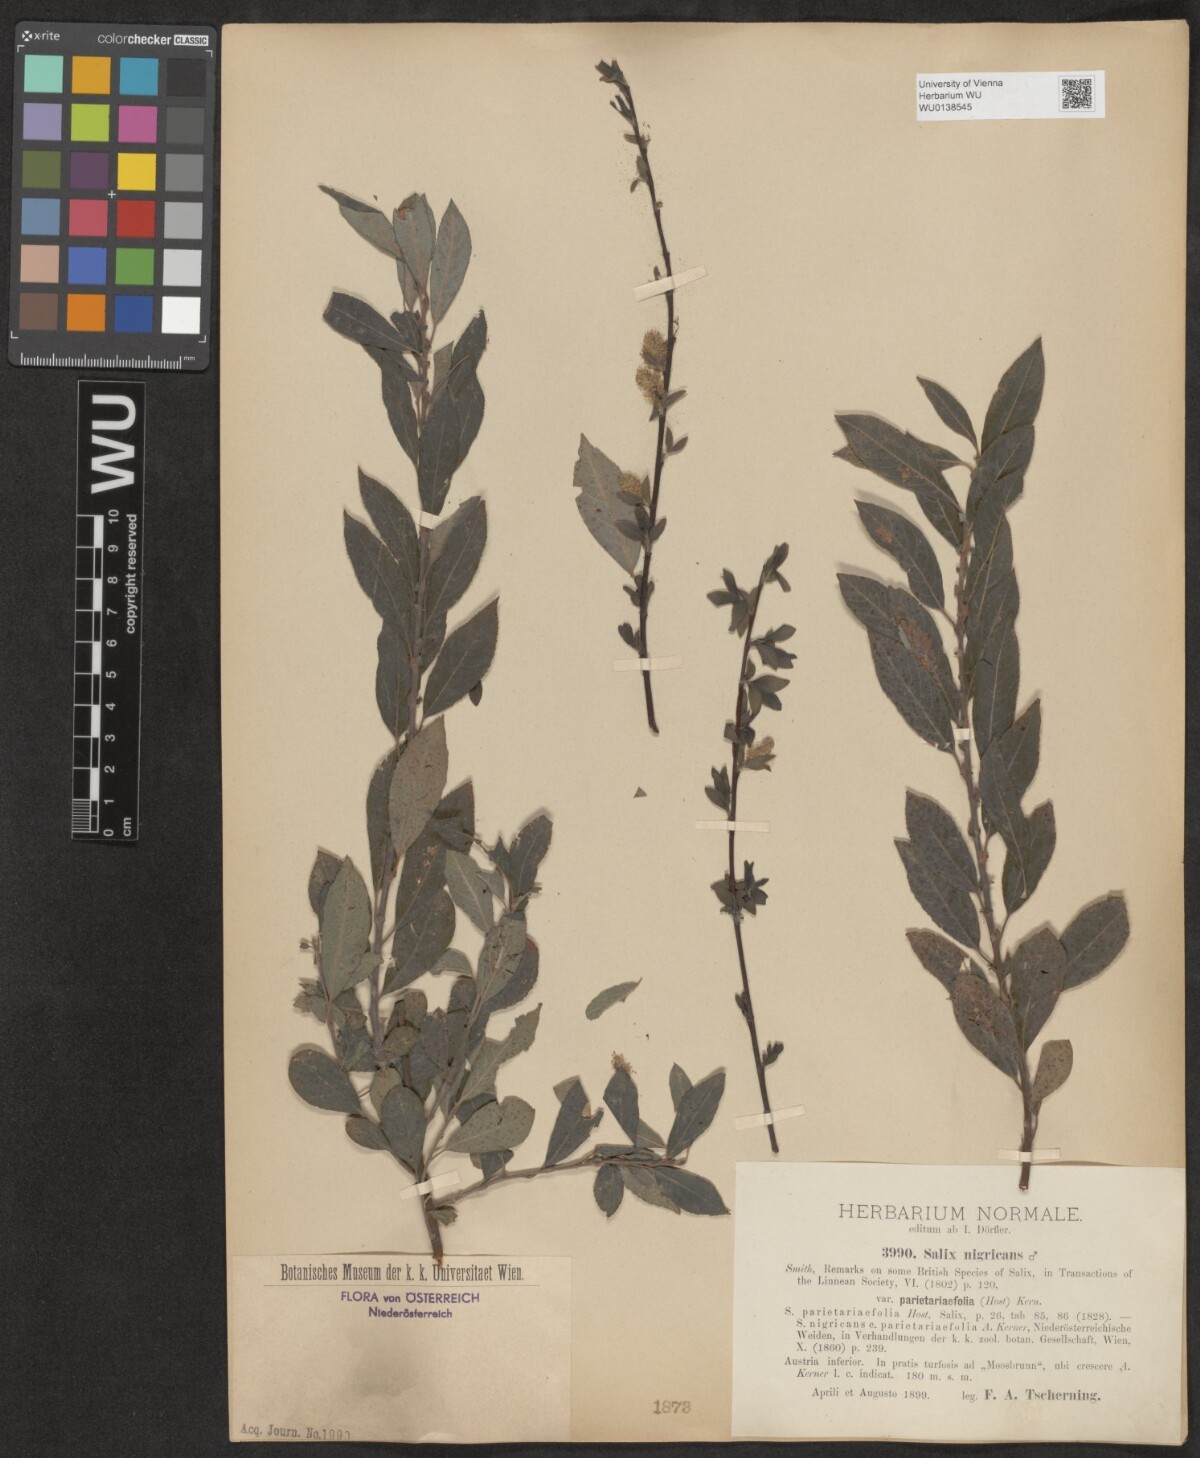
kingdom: Plantae
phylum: Tracheophyta
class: Magnoliopsida
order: Malpighiales
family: Salicaceae
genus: Salix
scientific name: Salix myrsinifolia
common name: Dark-leaved willow
